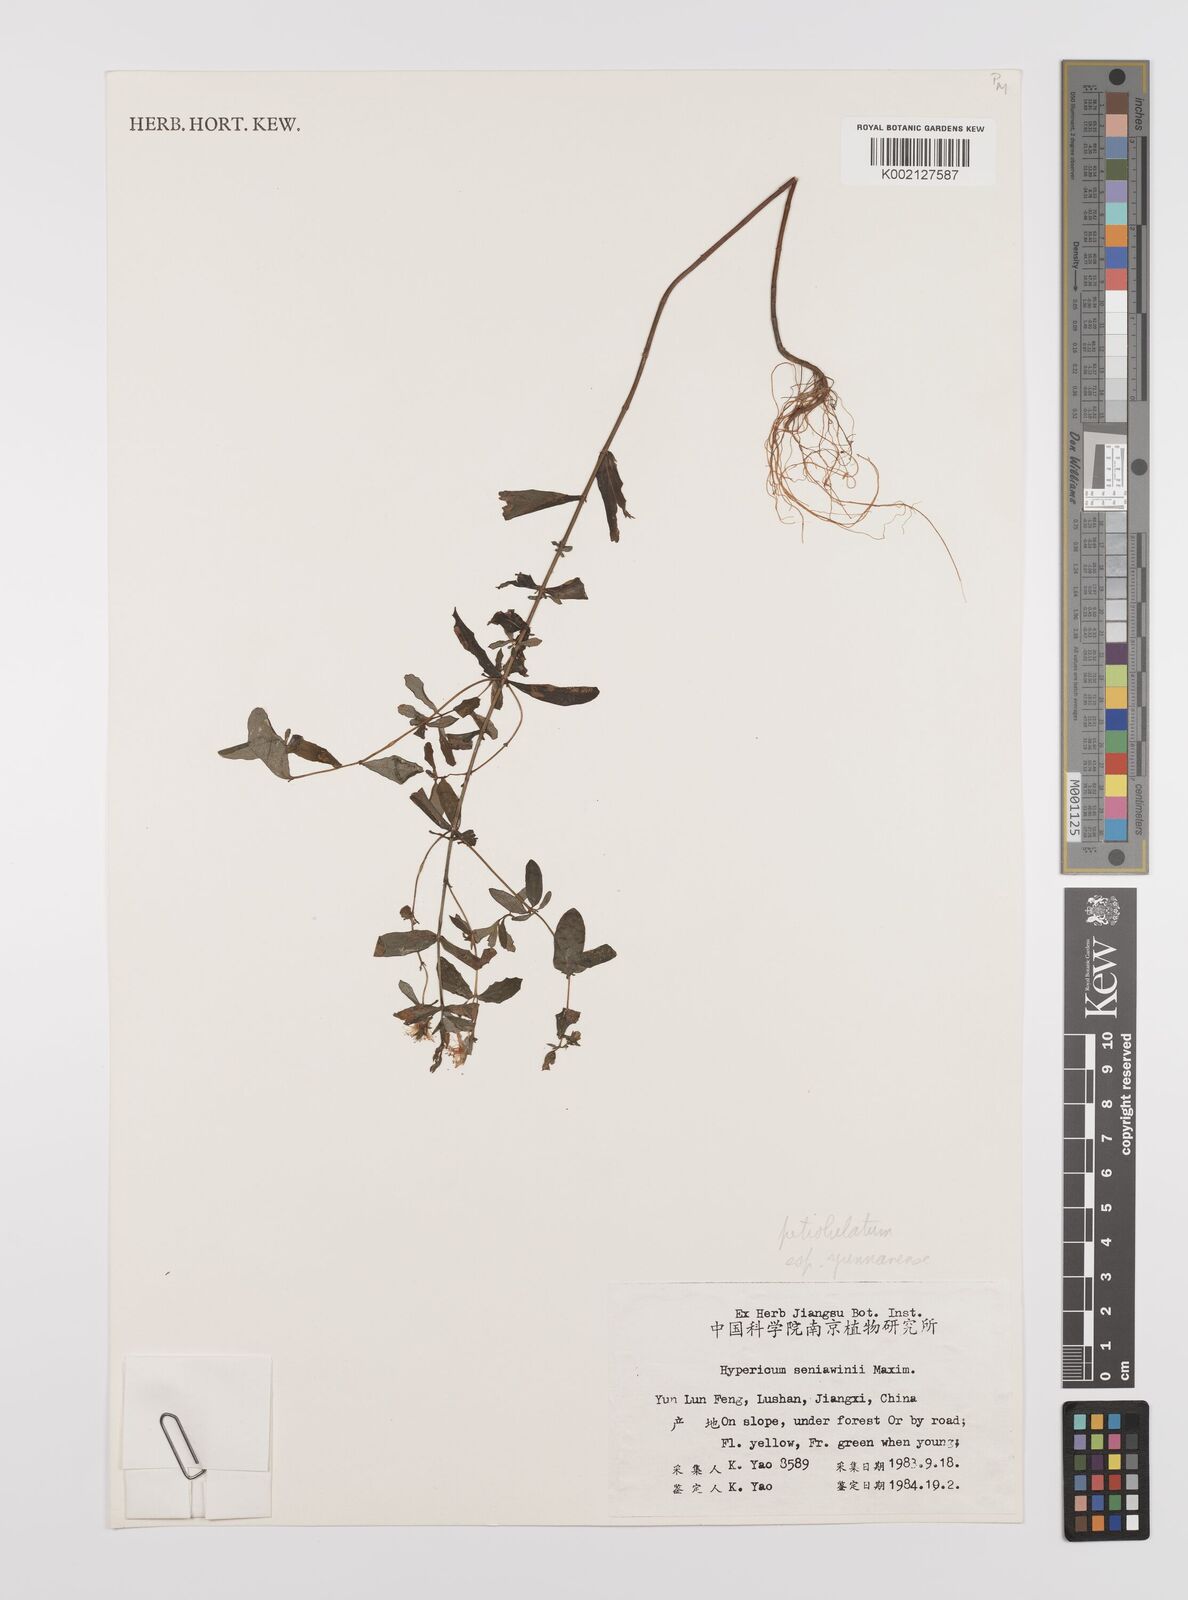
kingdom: Plantae
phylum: Tracheophyta
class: Magnoliopsida
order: Malpighiales
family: Hypericaceae
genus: Hypericum
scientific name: Hypericum petiolulatum
